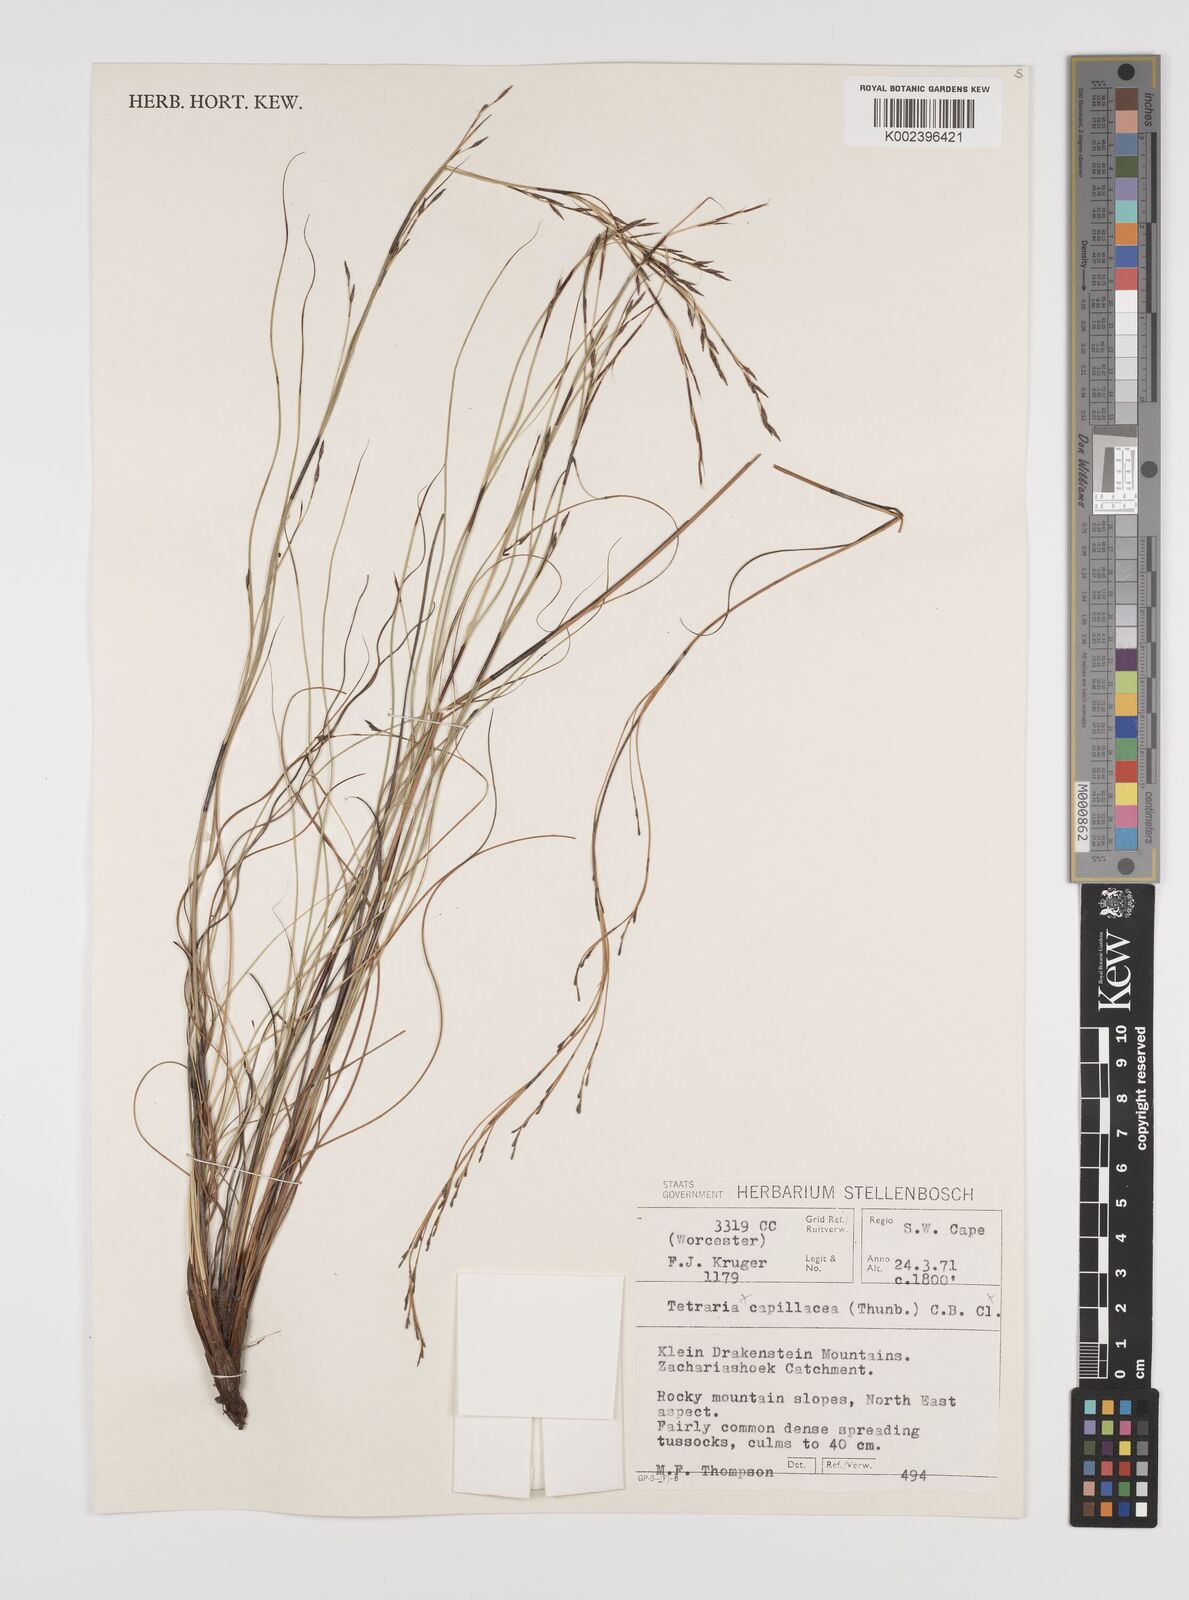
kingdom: Plantae
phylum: Tracheophyta
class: Liliopsida
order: Poales
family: Cyperaceae
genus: Tetraria
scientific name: Tetraria
